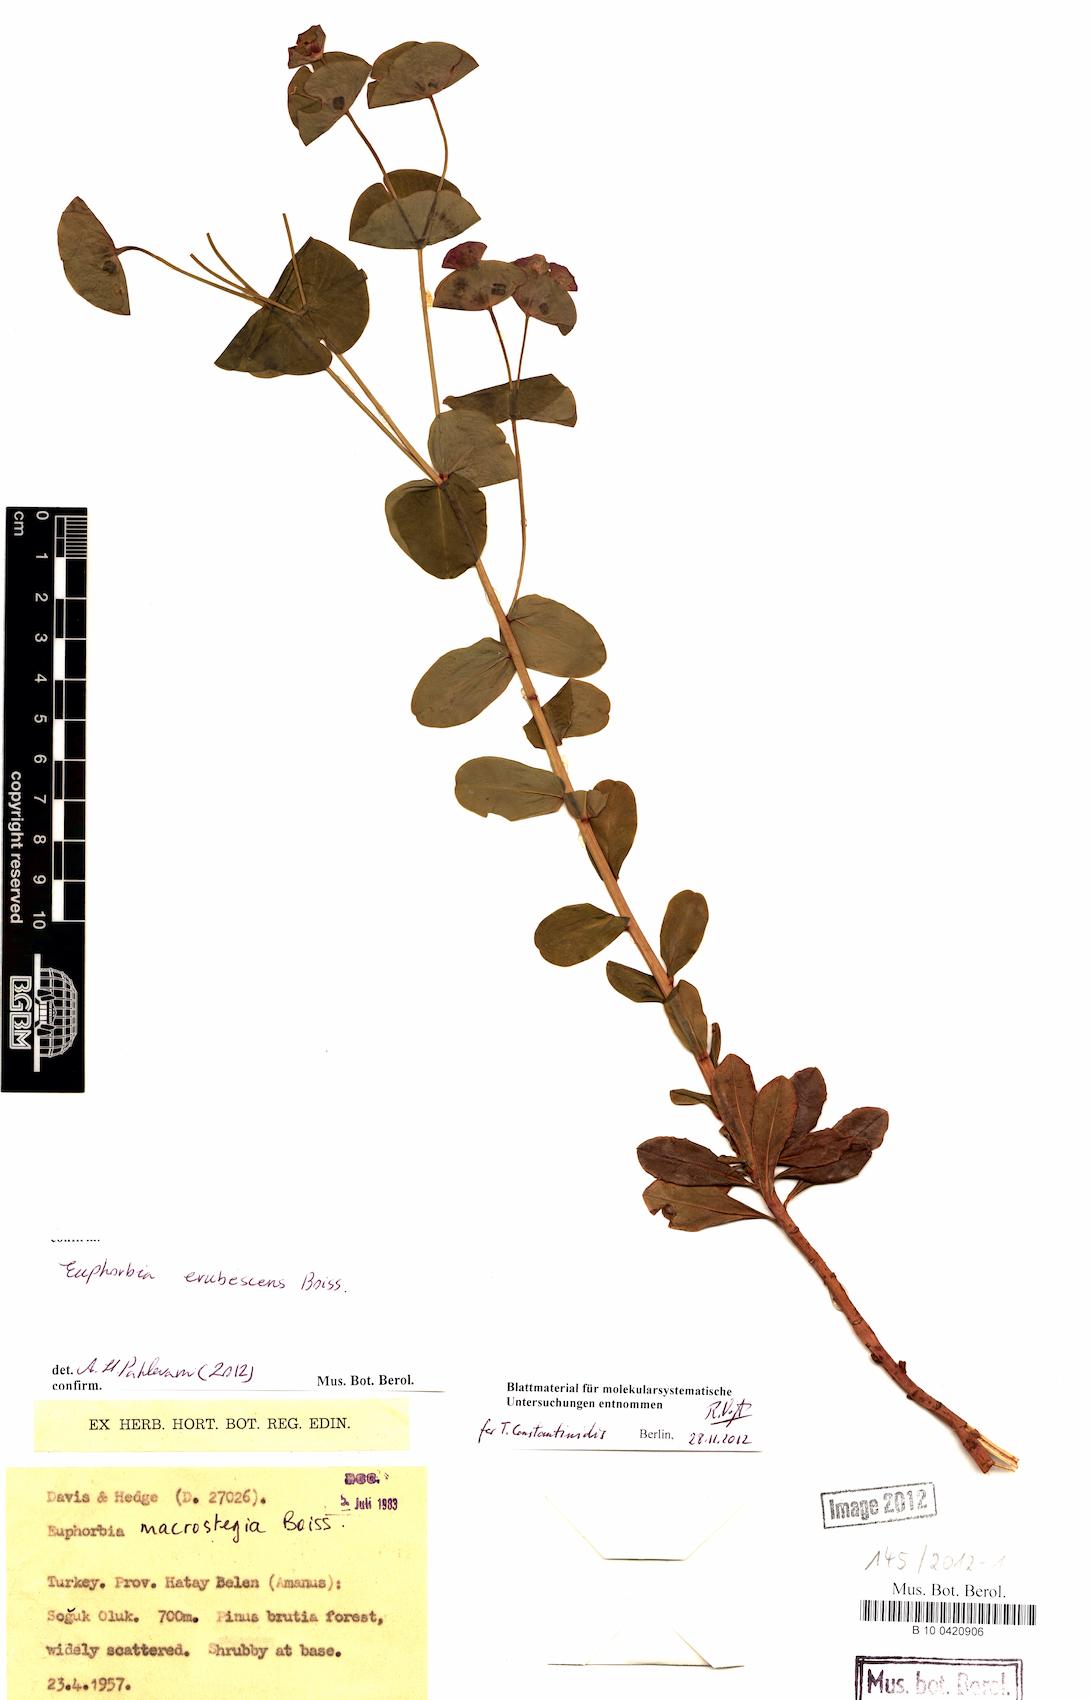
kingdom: Plantae
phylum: Tracheophyta
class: Magnoliopsida
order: Malpighiales
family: Euphorbiaceae
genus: Euphorbia
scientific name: Euphorbia erubescens
